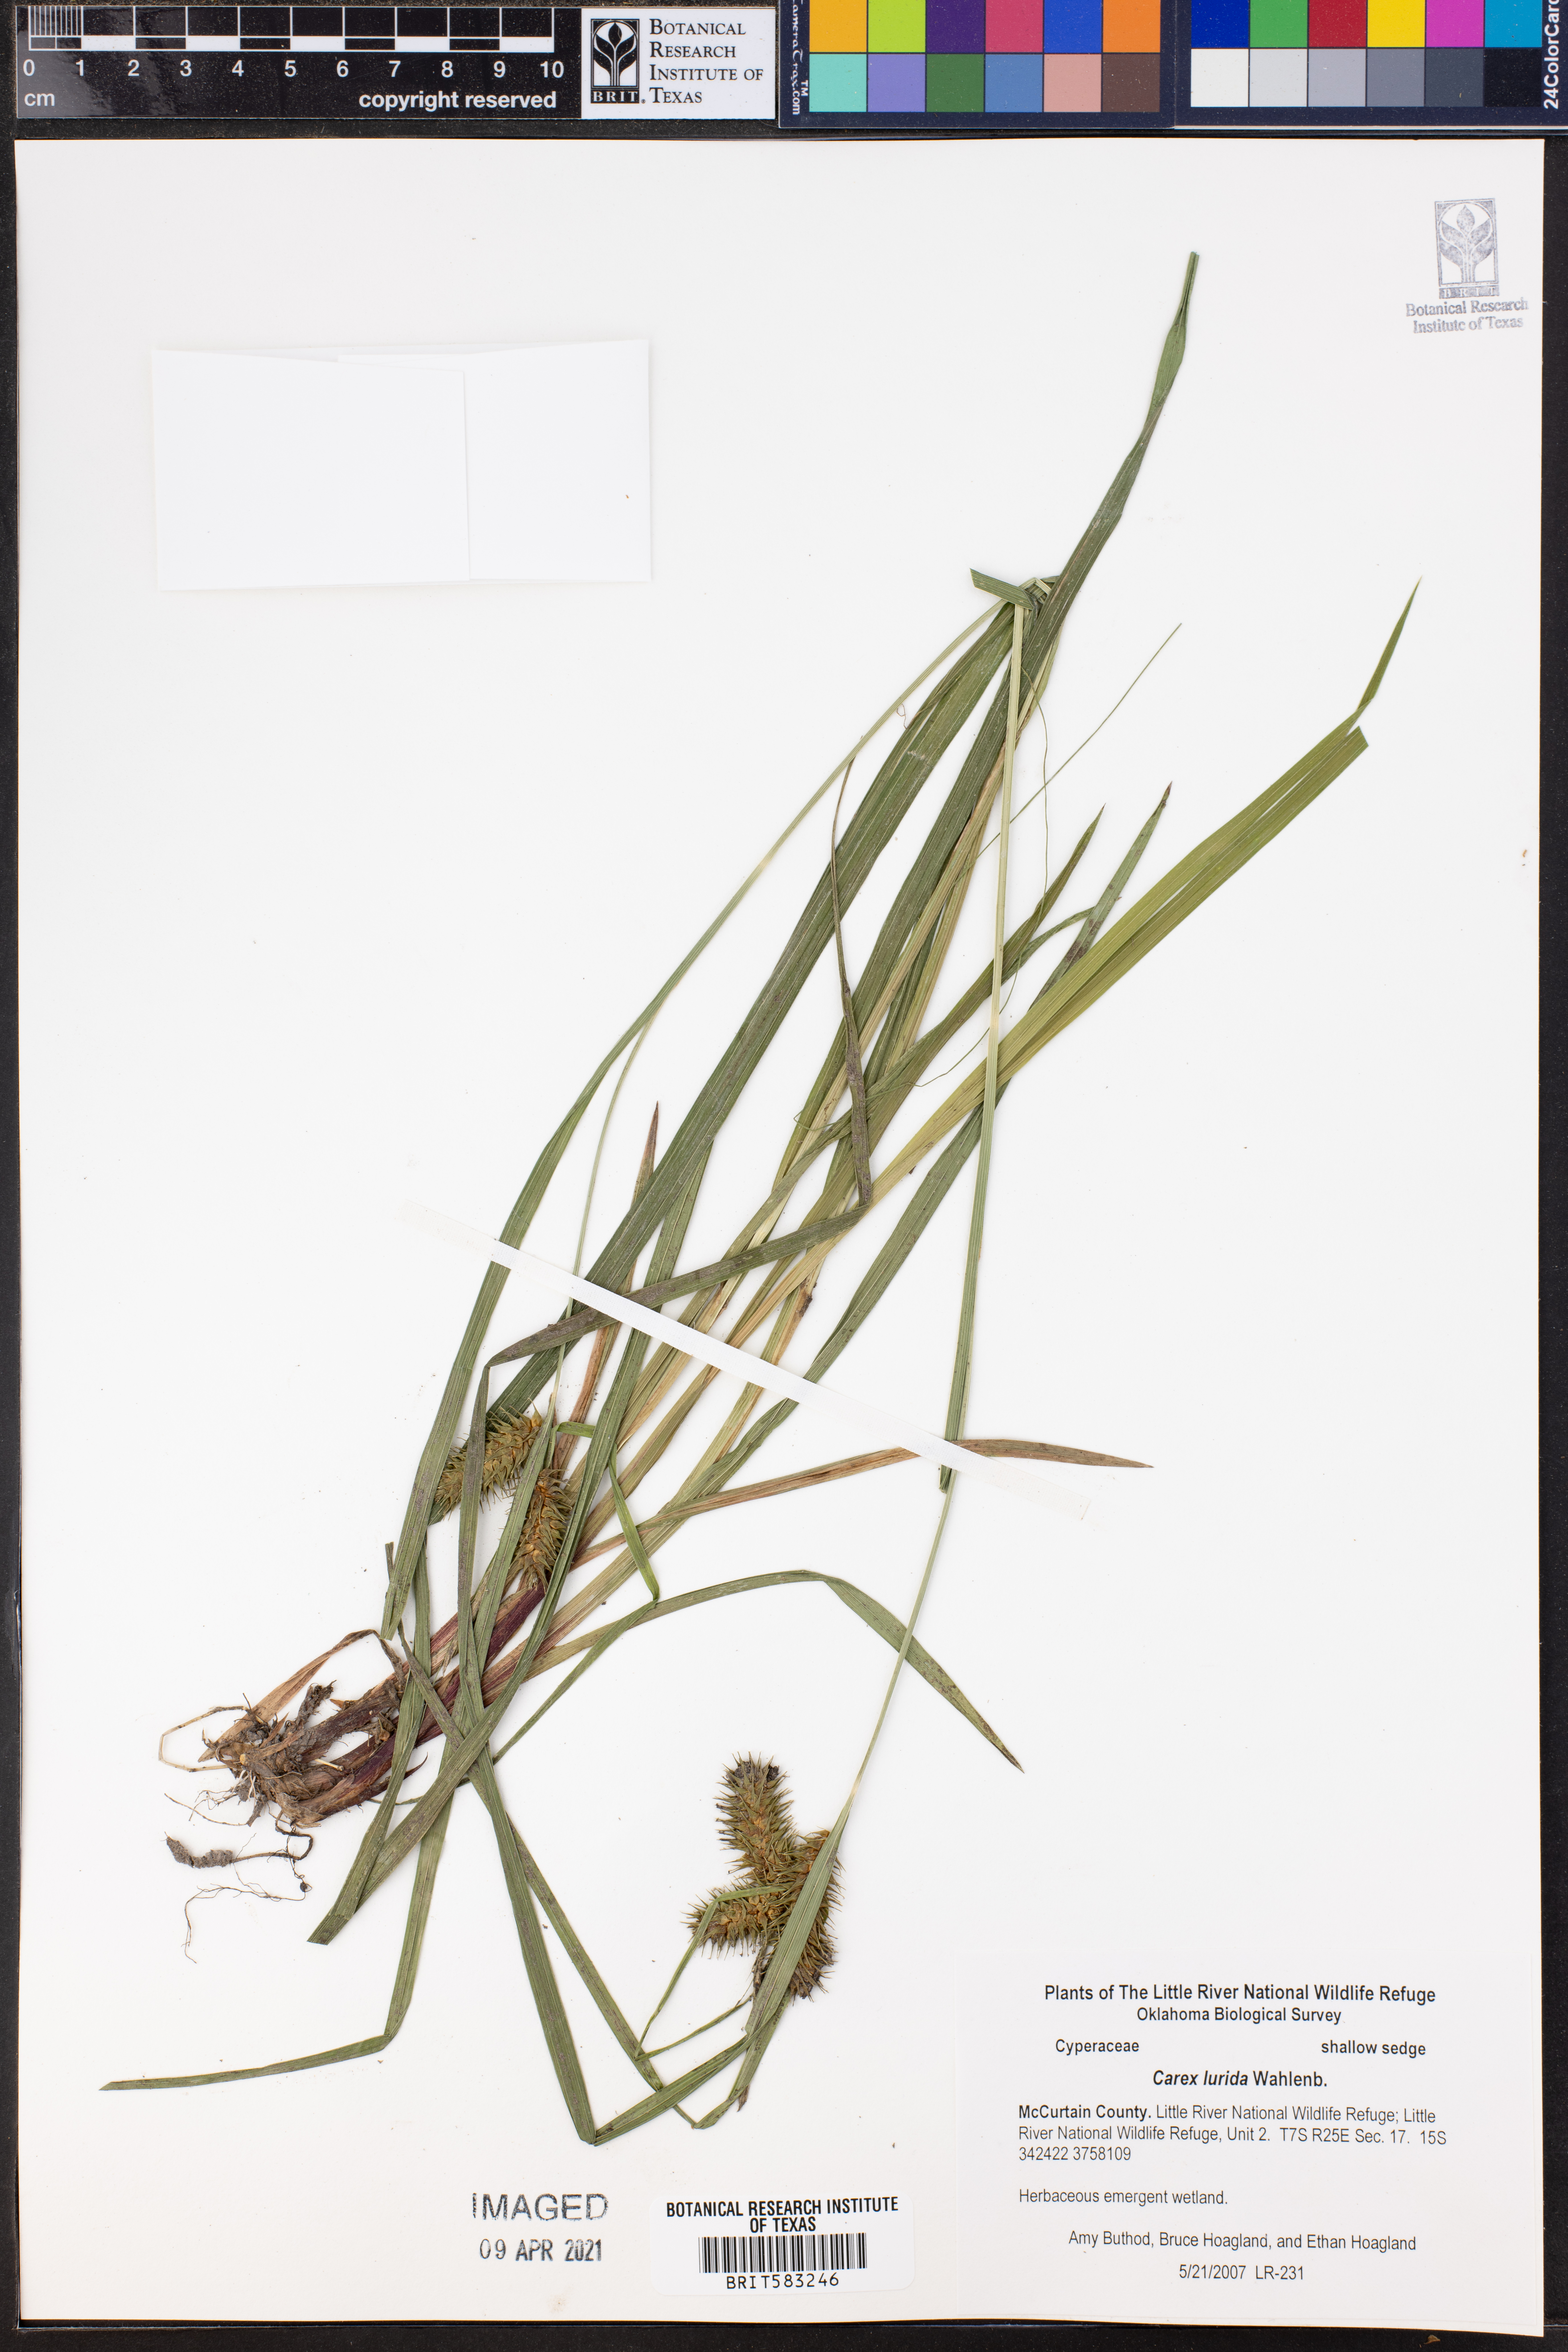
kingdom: Plantae
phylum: Tracheophyta
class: Liliopsida
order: Poales
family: Cyperaceae
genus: Carex
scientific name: Carex lurida
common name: Sallow sedge
